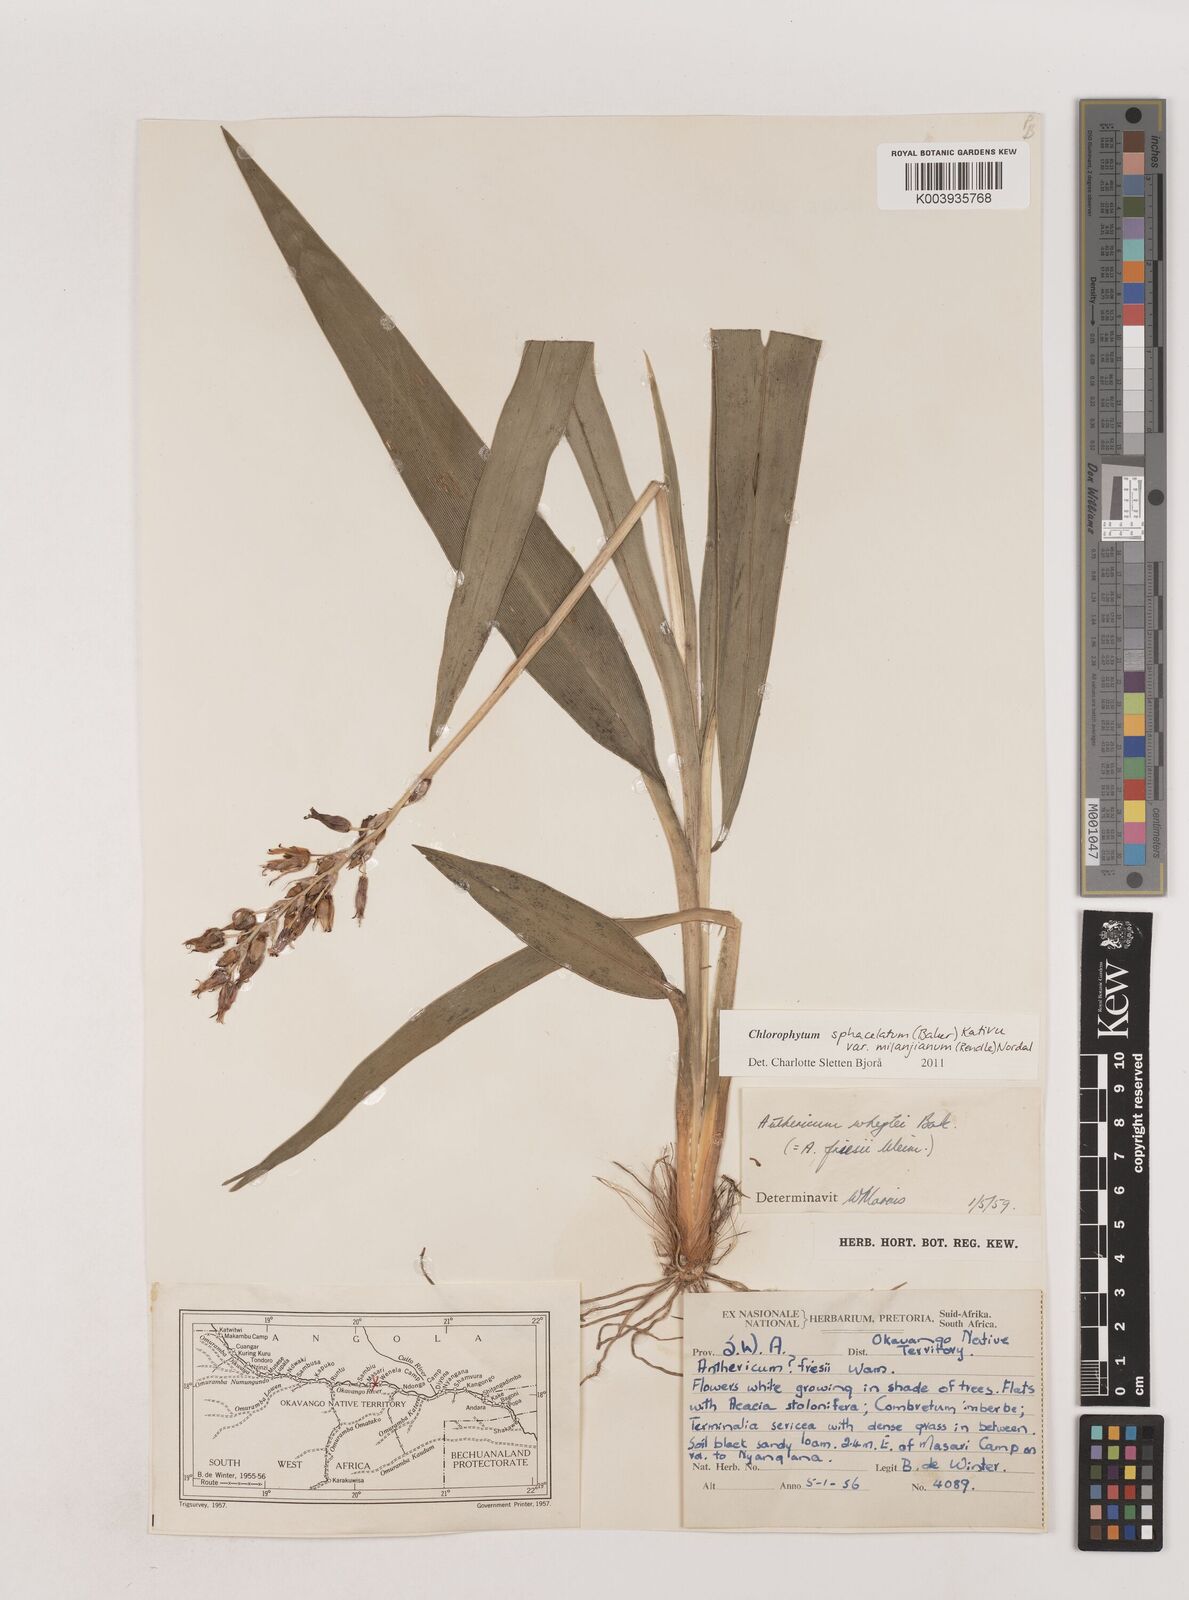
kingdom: Plantae
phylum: Tracheophyta
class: Liliopsida
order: Asparagales
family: Asparagaceae
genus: Chlorophytum
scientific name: Chlorophytum sphacelatum
